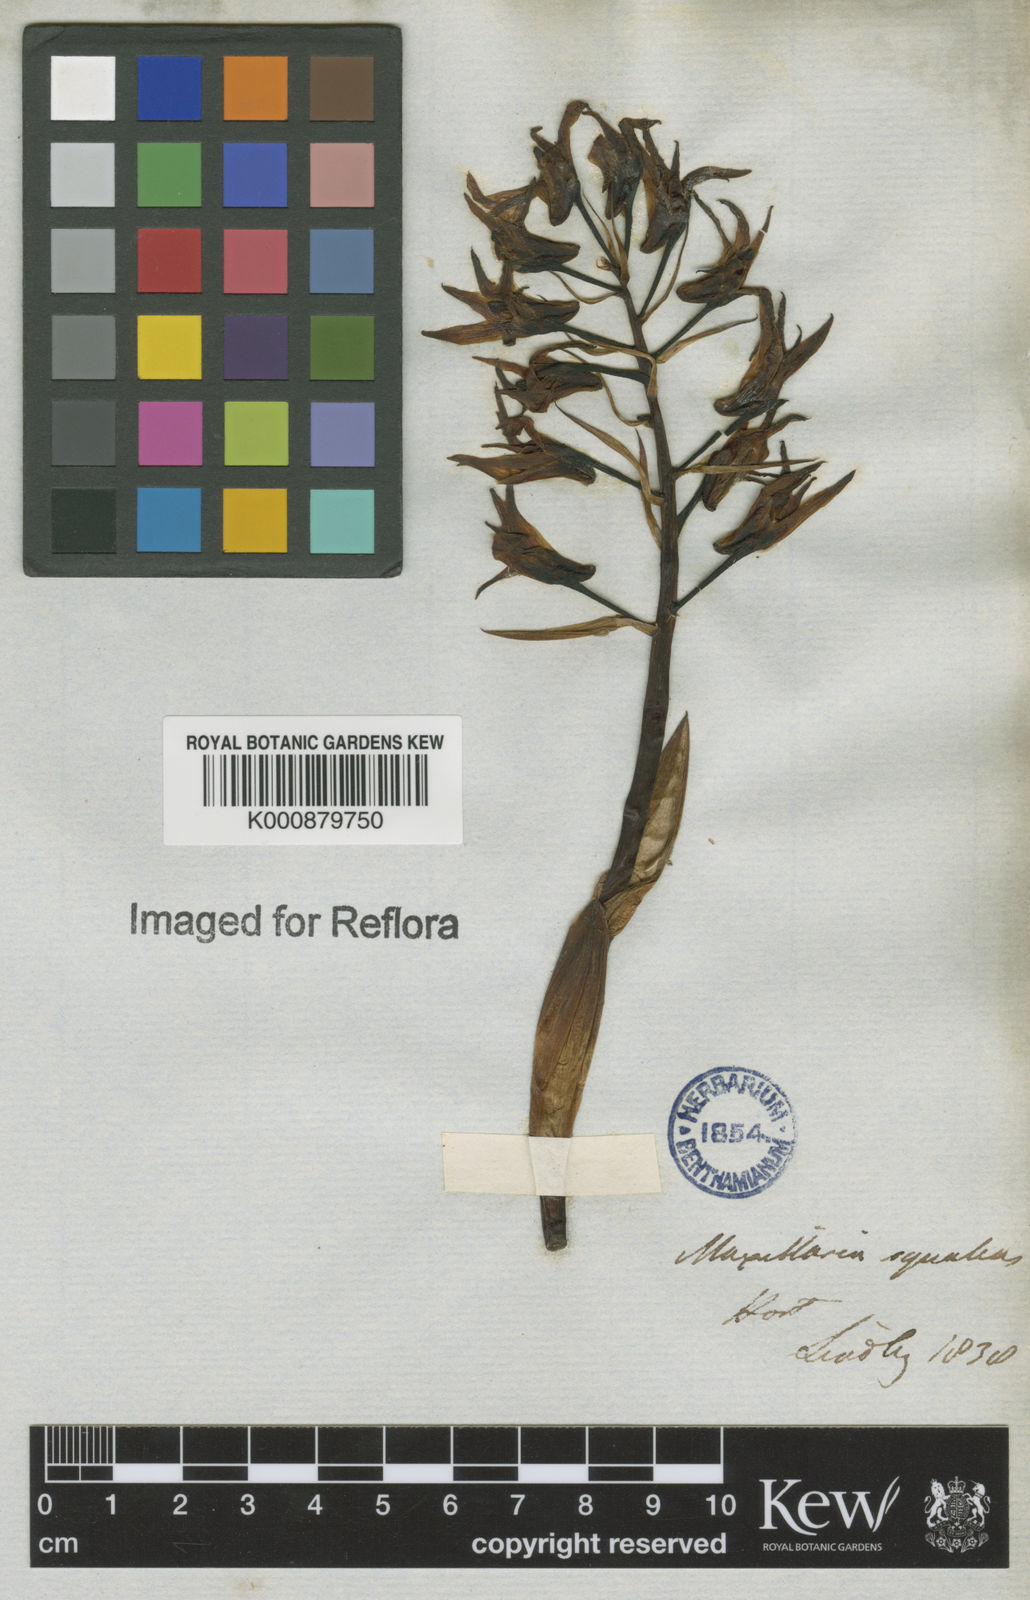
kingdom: Plantae
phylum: Tracheophyta
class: Liliopsida
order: Asparagales
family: Orchidaceae
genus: Xylobium
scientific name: Xylobium
